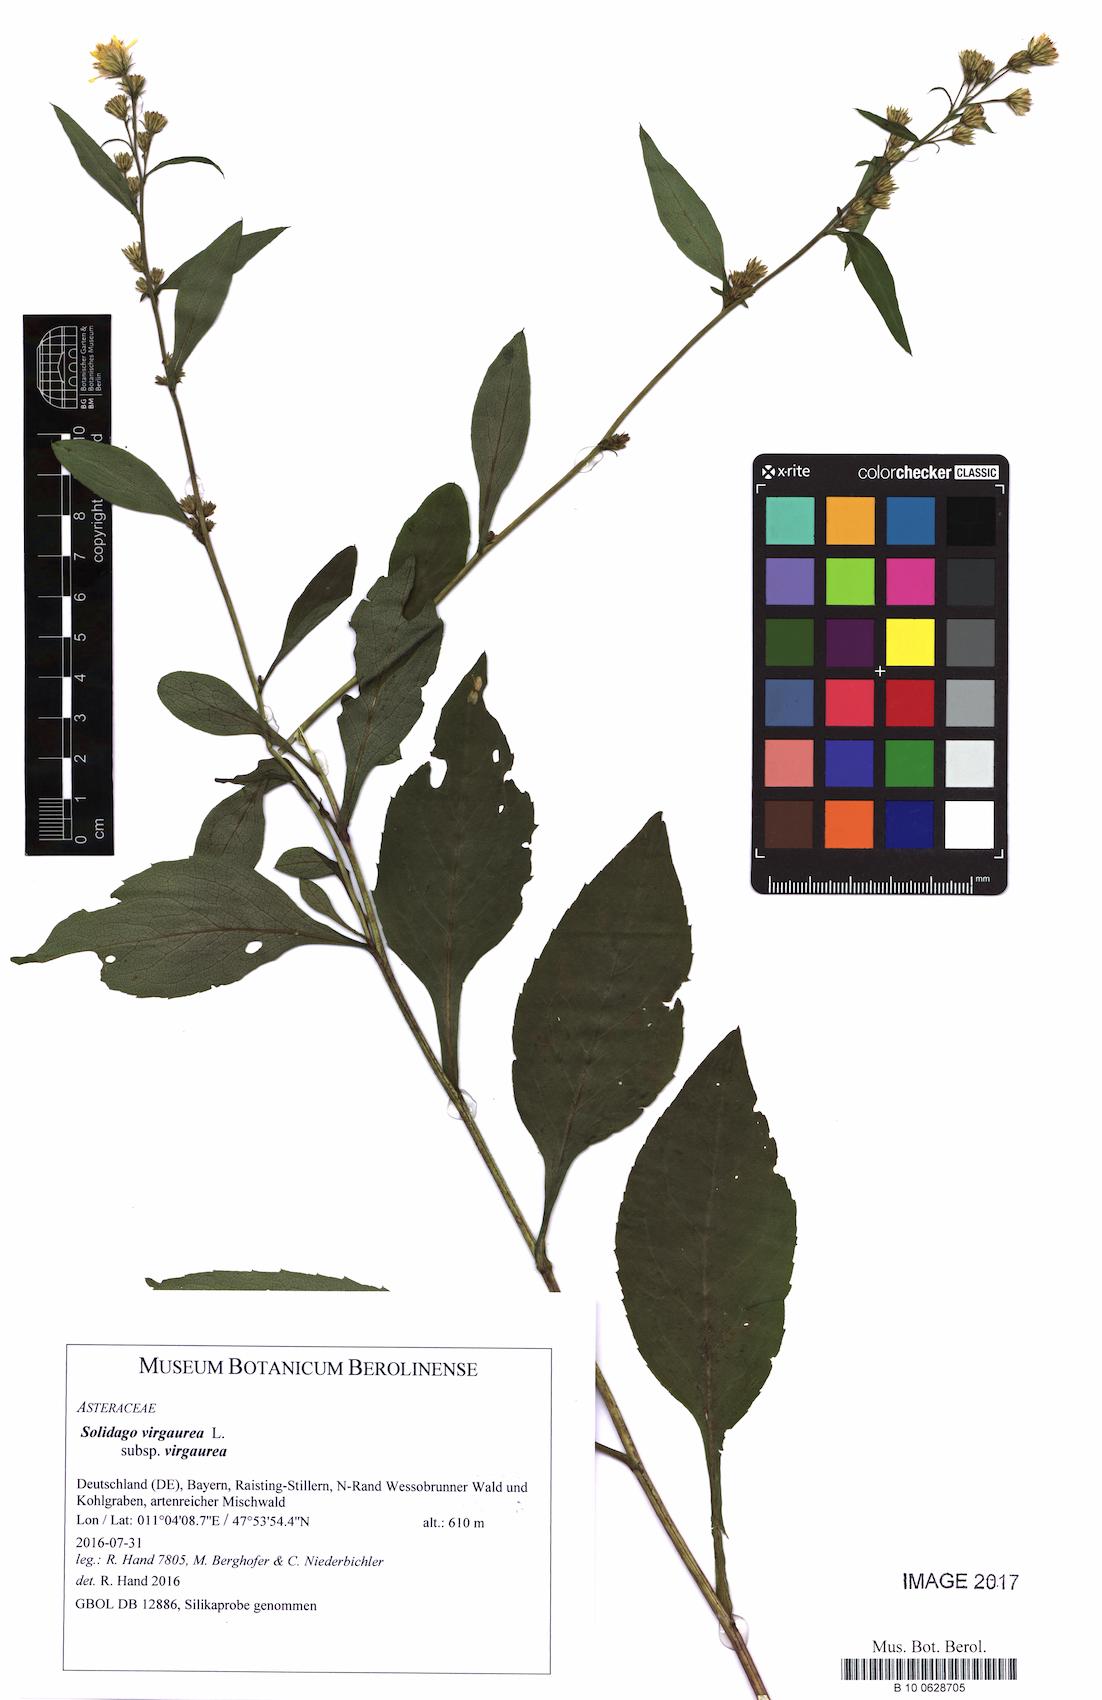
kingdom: Plantae
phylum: Tracheophyta
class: Magnoliopsida
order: Asterales
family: Asteraceae
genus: Solidago
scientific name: Solidago virgaurea
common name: Goldenrod
